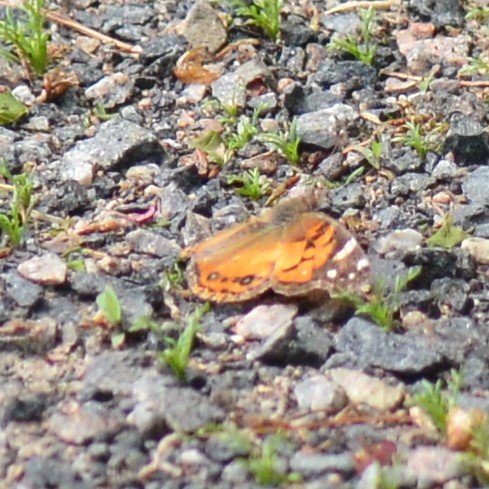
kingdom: Animalia
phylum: Arthropoda
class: Insecta
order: Lepidoptera
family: Nymphalidae
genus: Vanessa
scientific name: Vanessa virginiensis
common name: American Lady
